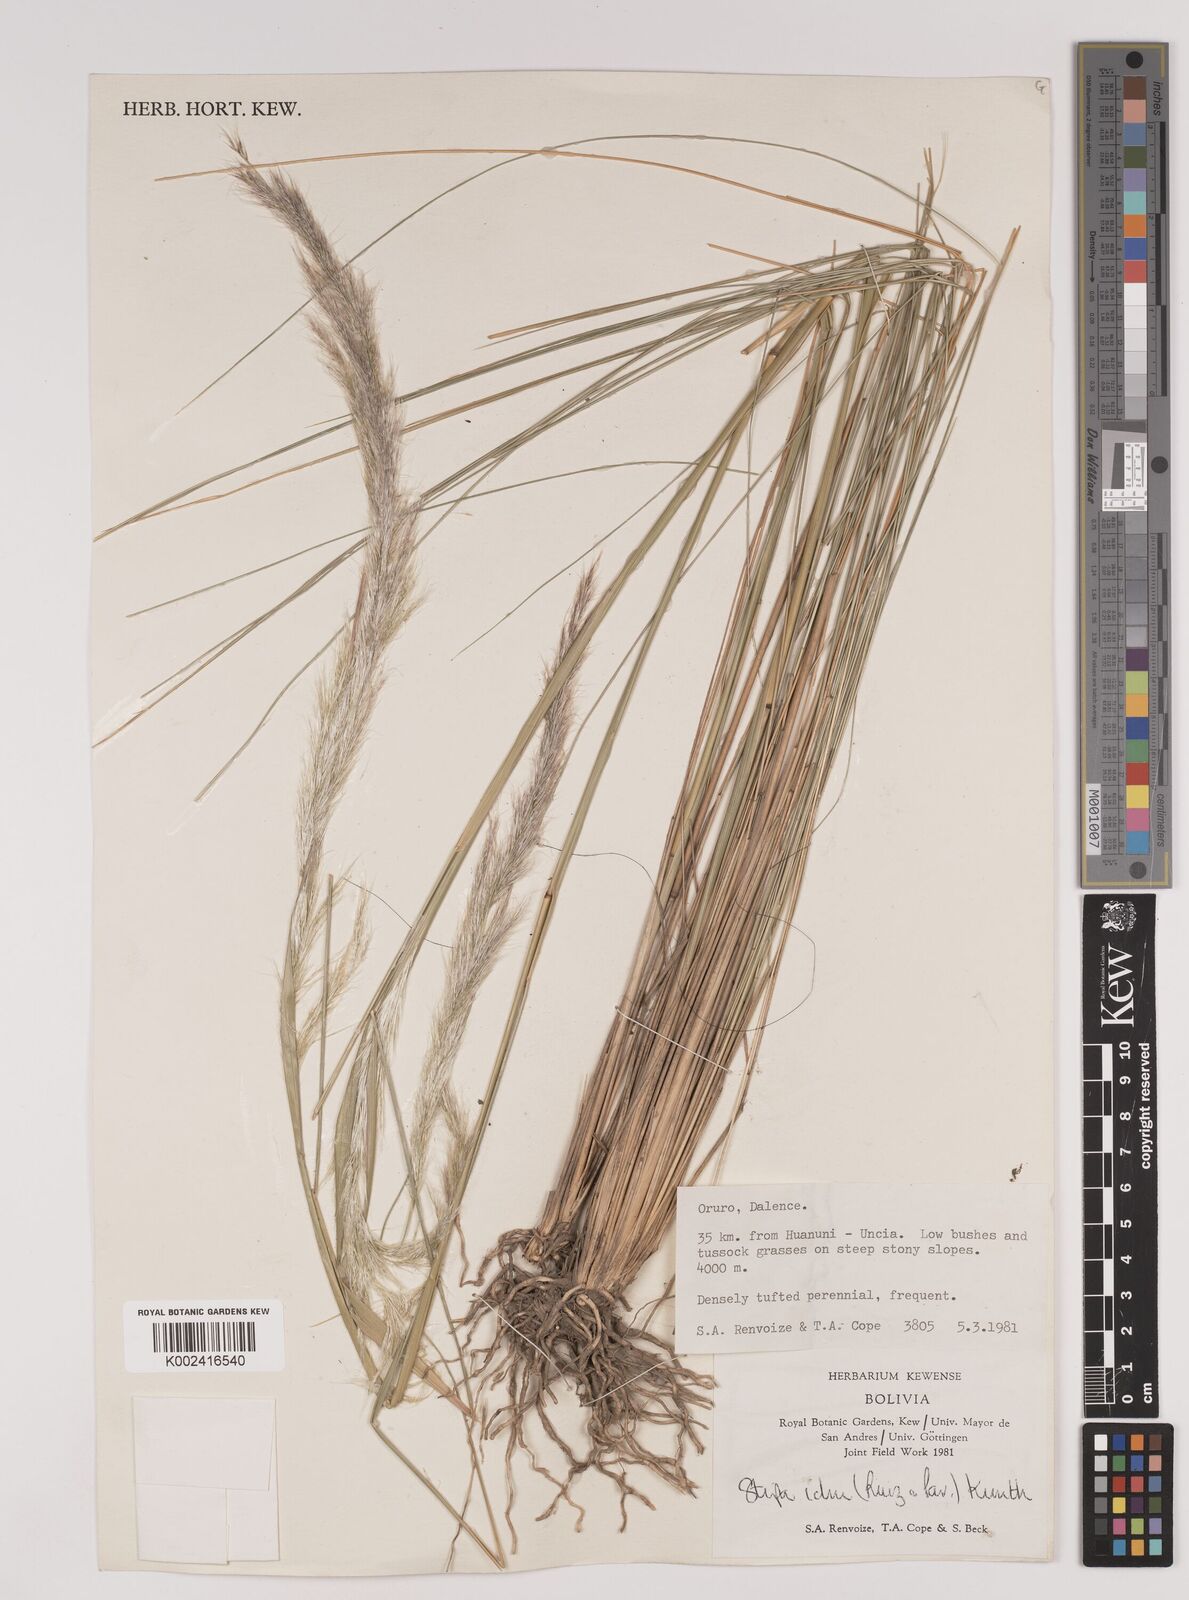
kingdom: Plantae
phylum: Tracheophyta
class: Liliopsida
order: Poales
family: Poaceae
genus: Stipa
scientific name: Stipa
